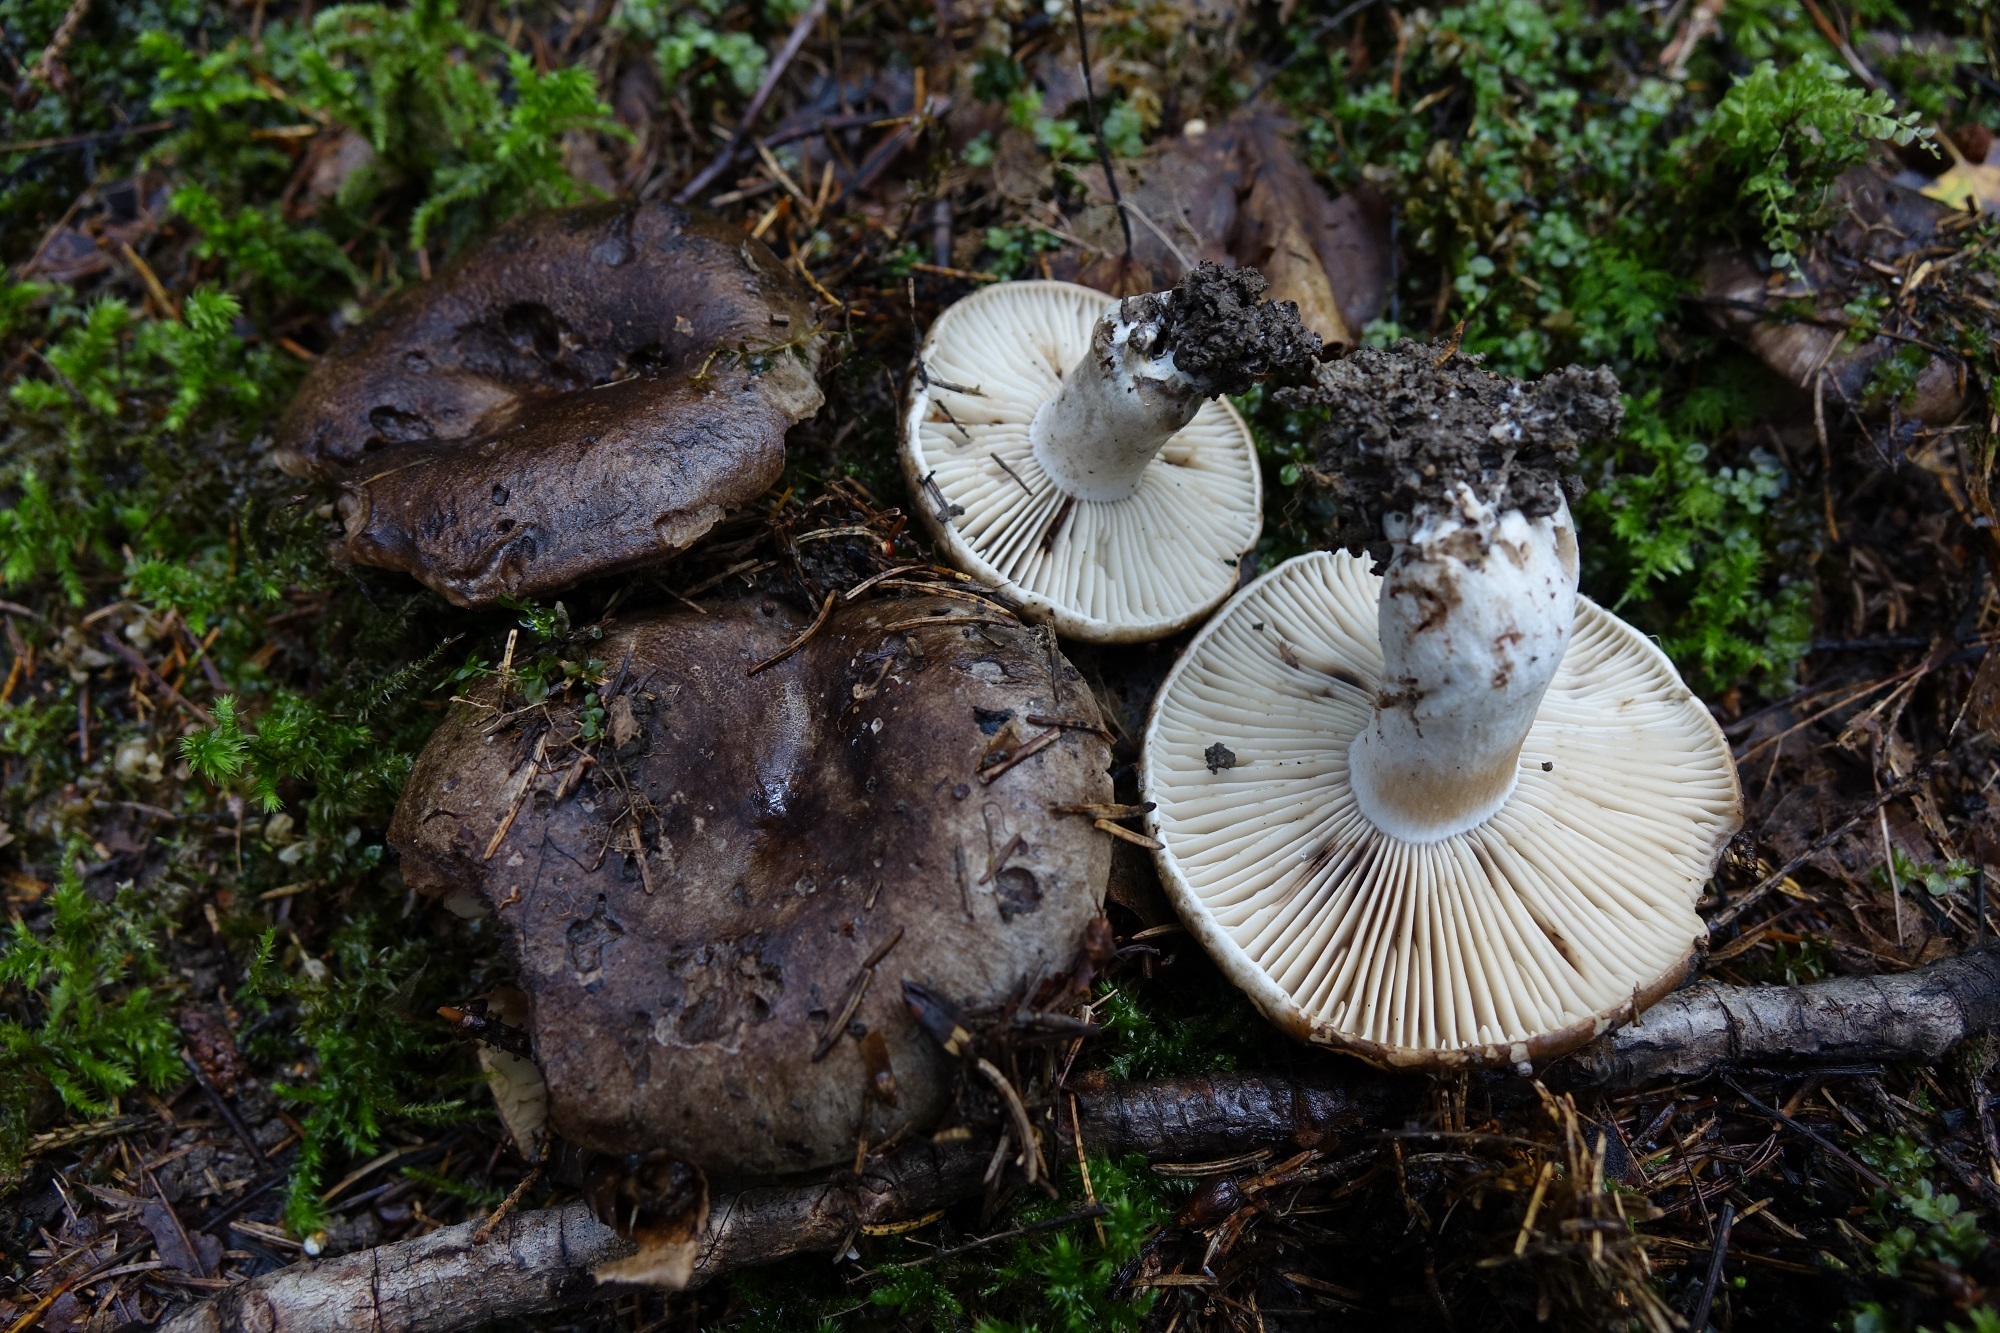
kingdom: Fungi
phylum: Basidiomycota
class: Agaricomycetes
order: Russulales
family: Russulaceae
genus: Russula
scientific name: Russula adusta
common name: Winecork brittlegill
